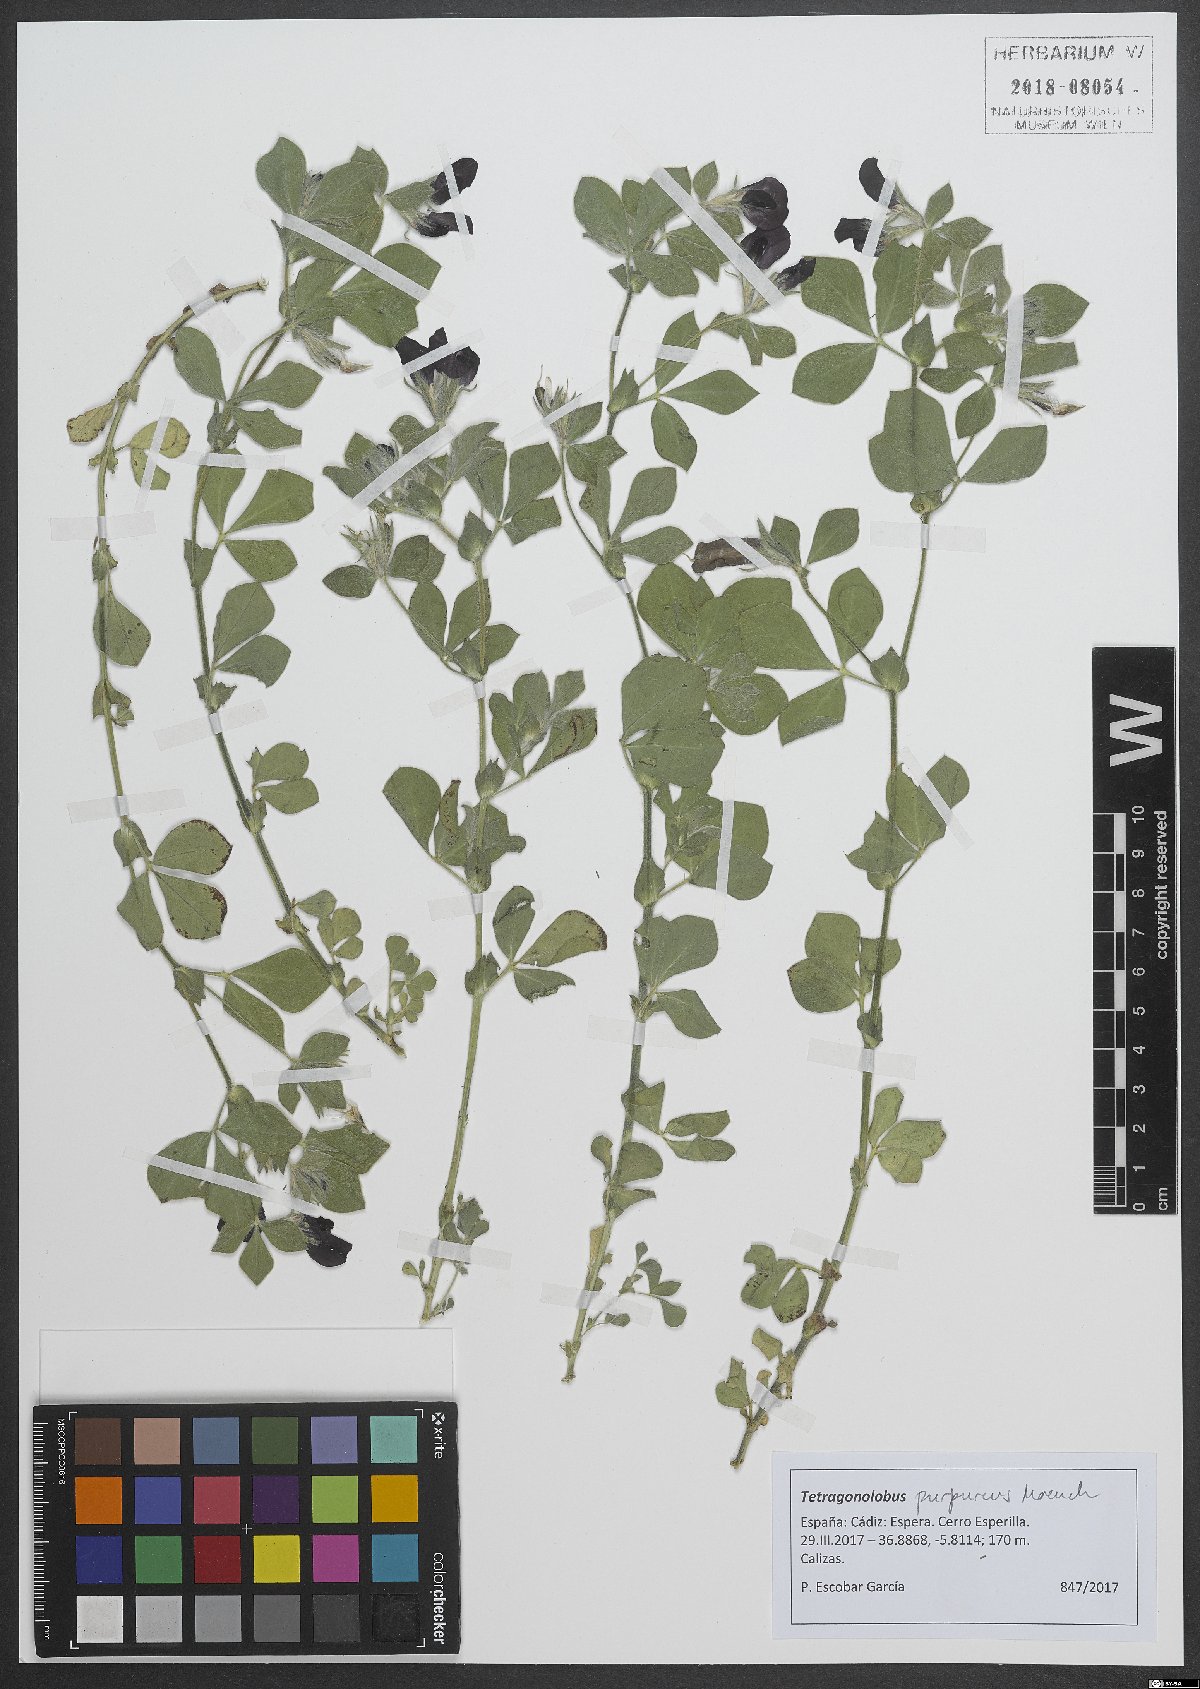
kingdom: Plantae
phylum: Tracheophyta
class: Magnoliopsida
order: Fabales
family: Fabaceae
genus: Lotus
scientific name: Lotus tetragonolobus
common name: Asparagus-pea
